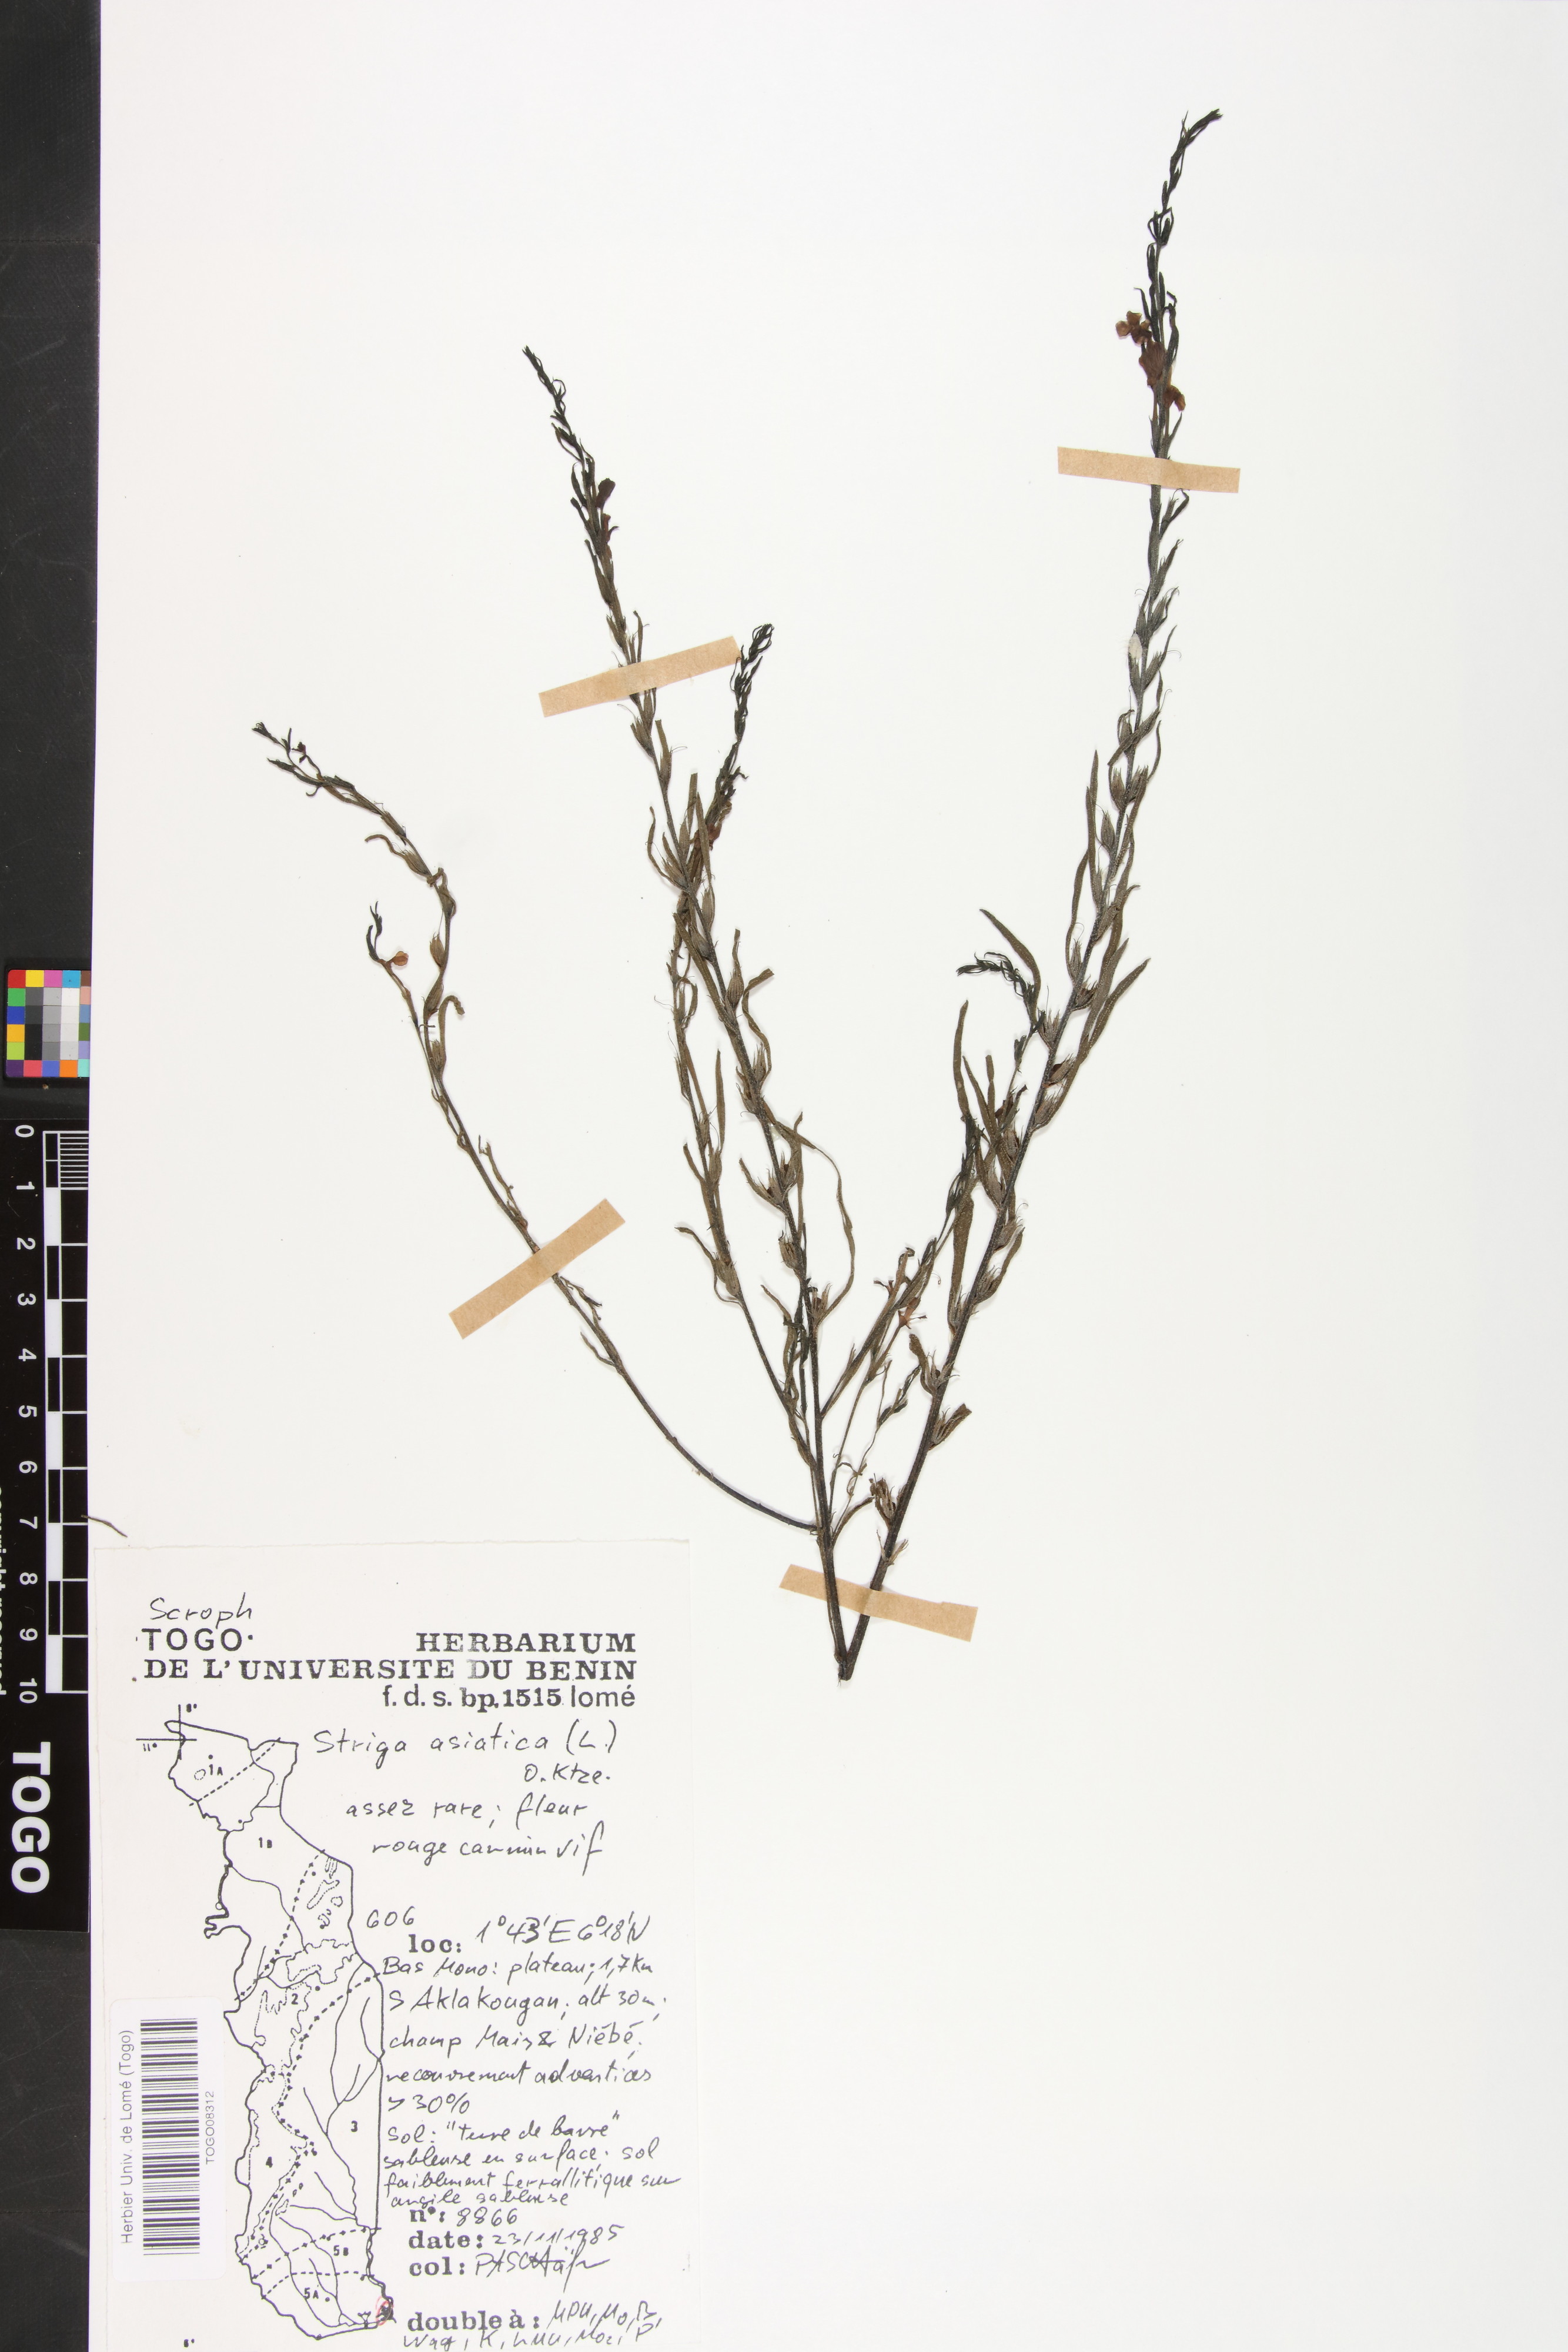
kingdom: Plantae
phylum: Tracheophyta
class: Magnoliopsida
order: Lamiales
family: Orobanchaceae
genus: Striga
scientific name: Striga asiatica
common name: Asiatic witchweed
